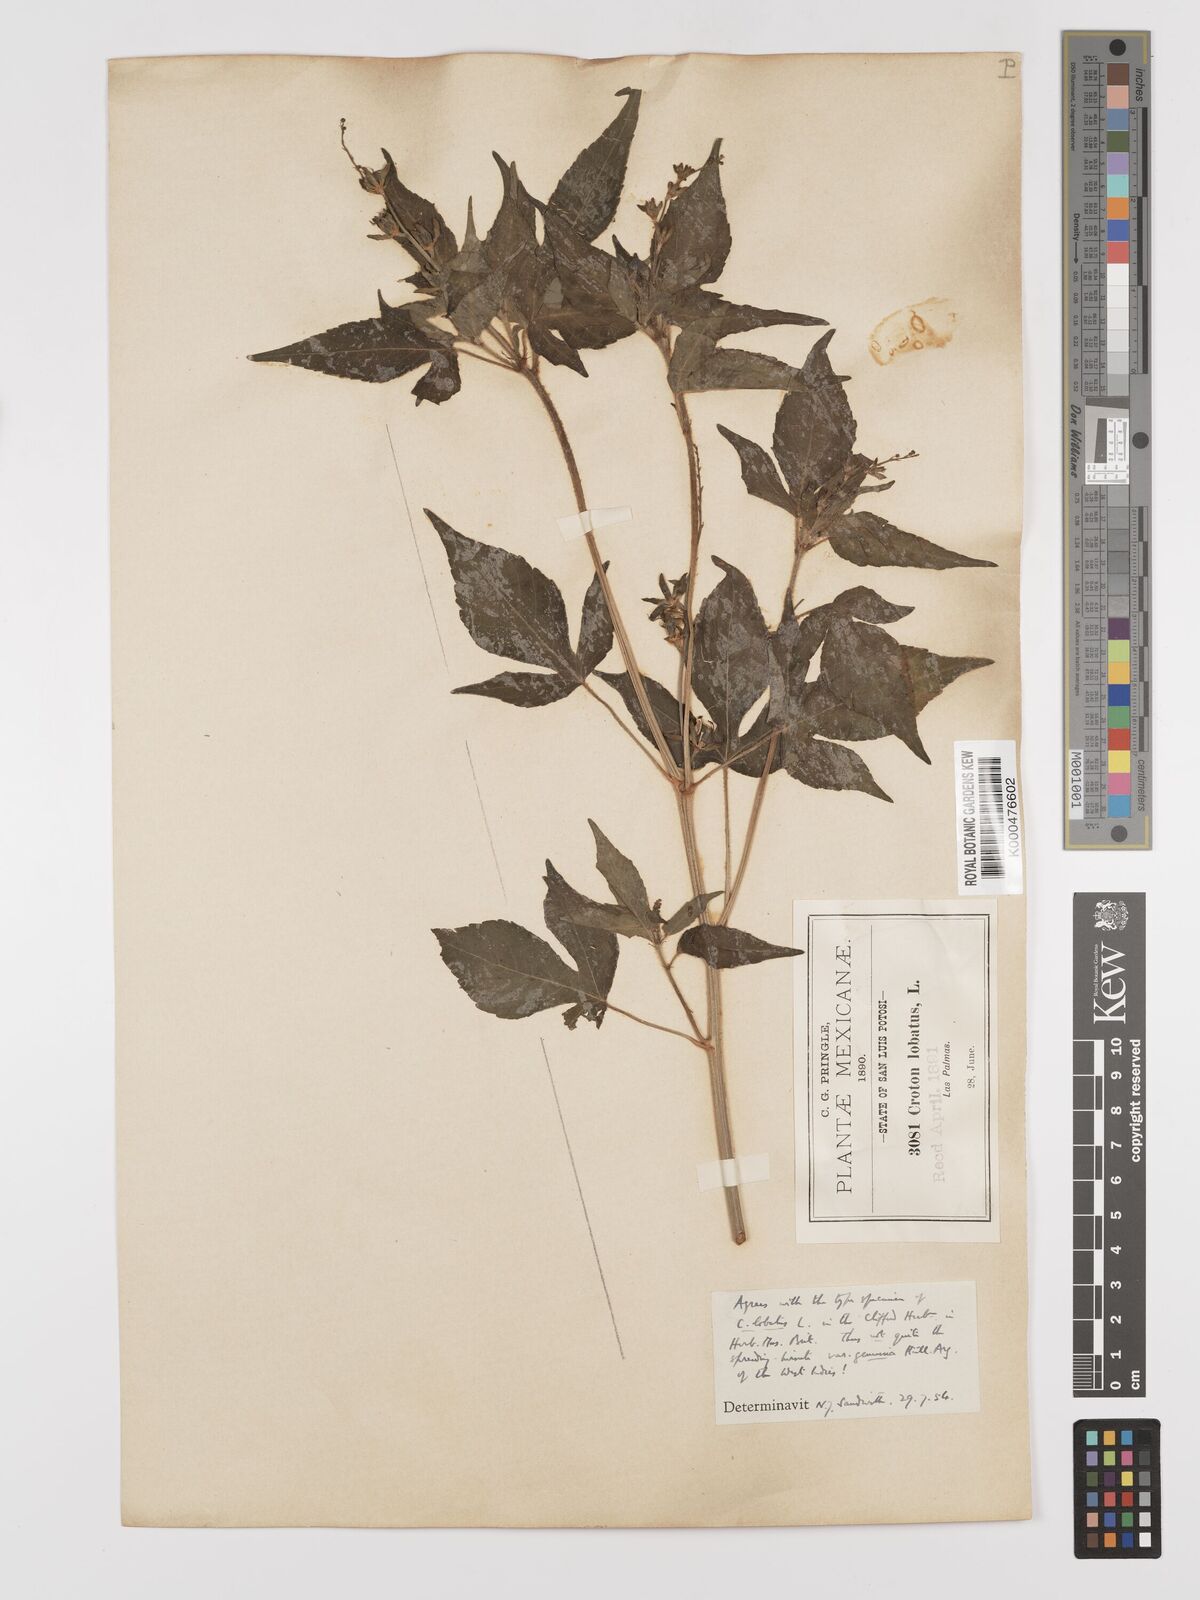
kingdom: Plantae
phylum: Tracheophyta
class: Magnoliopsida
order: Malpighiales
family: Euphorbiaceae
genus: Astraea
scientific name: Astraea lobata
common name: Lobed croton
